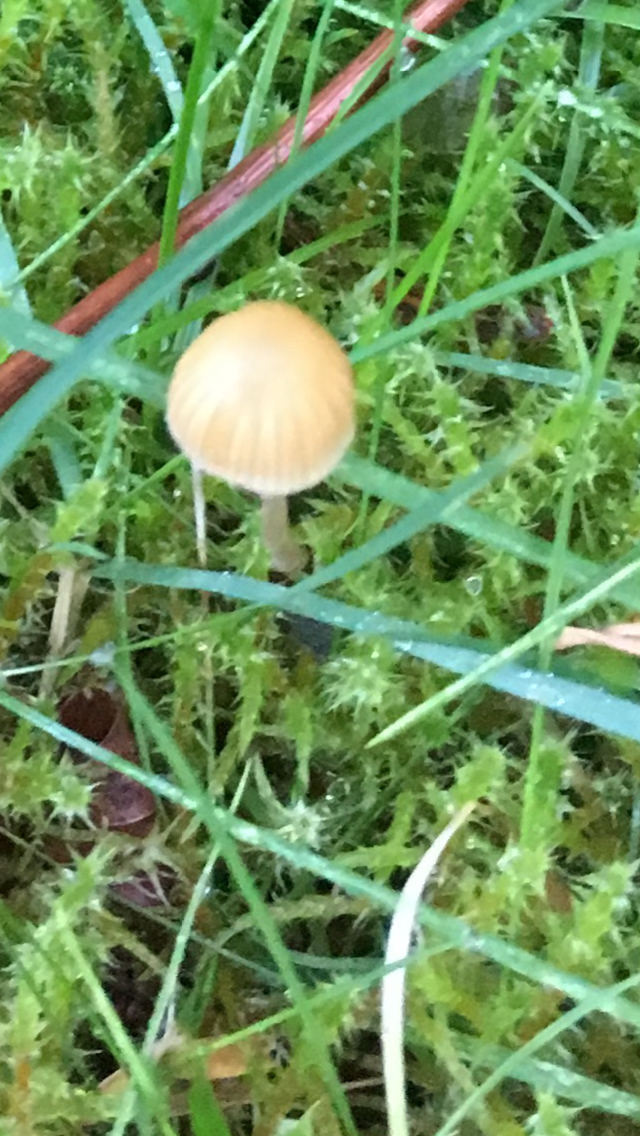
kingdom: Fungi
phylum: Basidiomycota
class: Agaricomycetes
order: Agaricales
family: Hymenogastraceae
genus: Galerina
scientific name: Galerina
